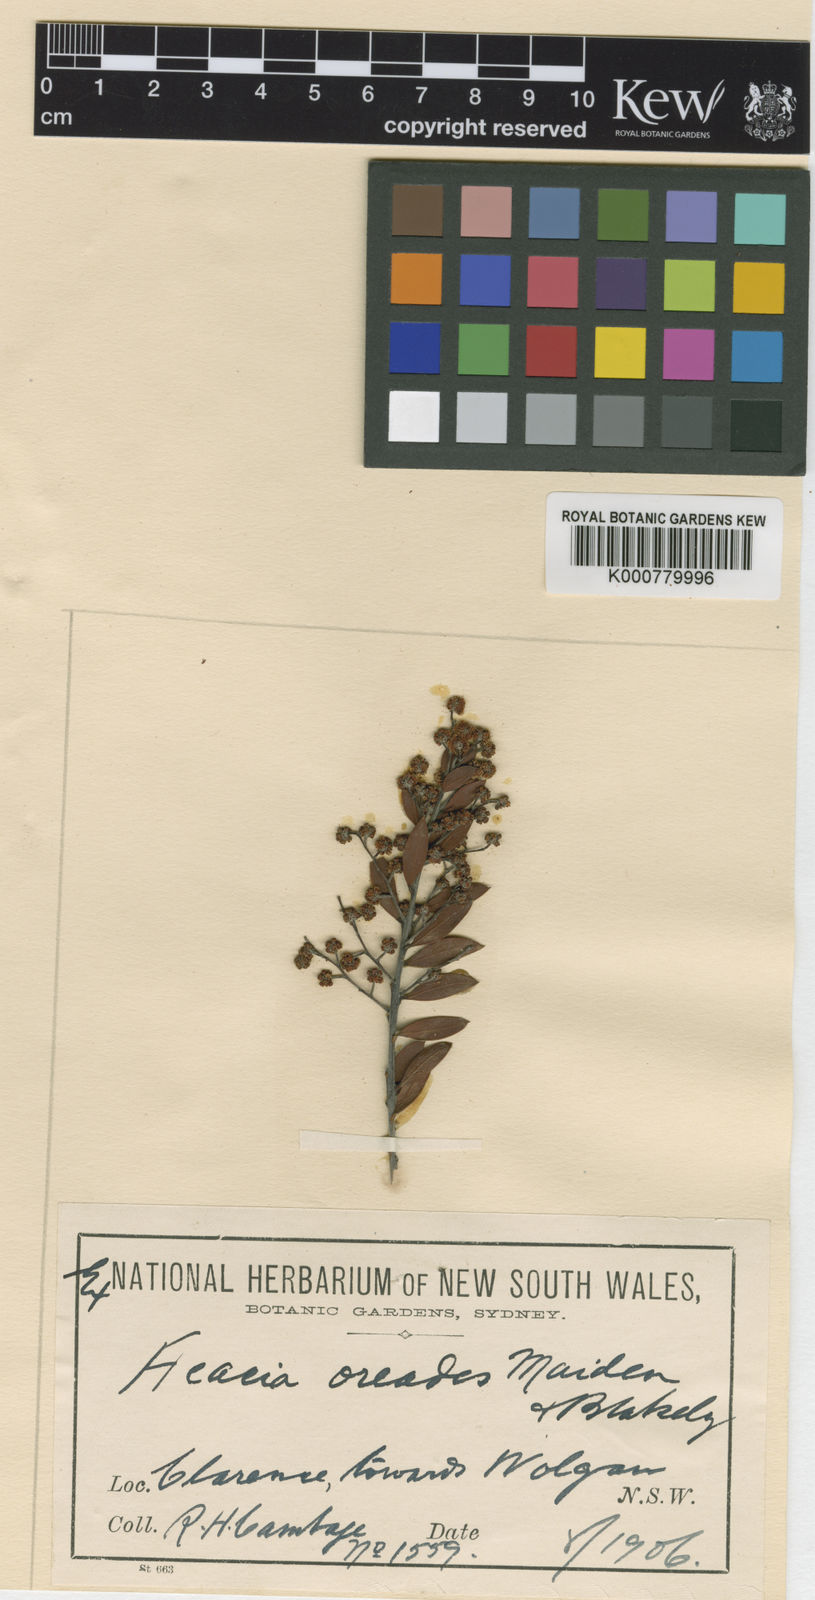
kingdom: Plantae
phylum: Tracheophyta
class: Magnoliopsida
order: Fabales
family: Fabaceae
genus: Acacia
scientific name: Acacia buxifolia
